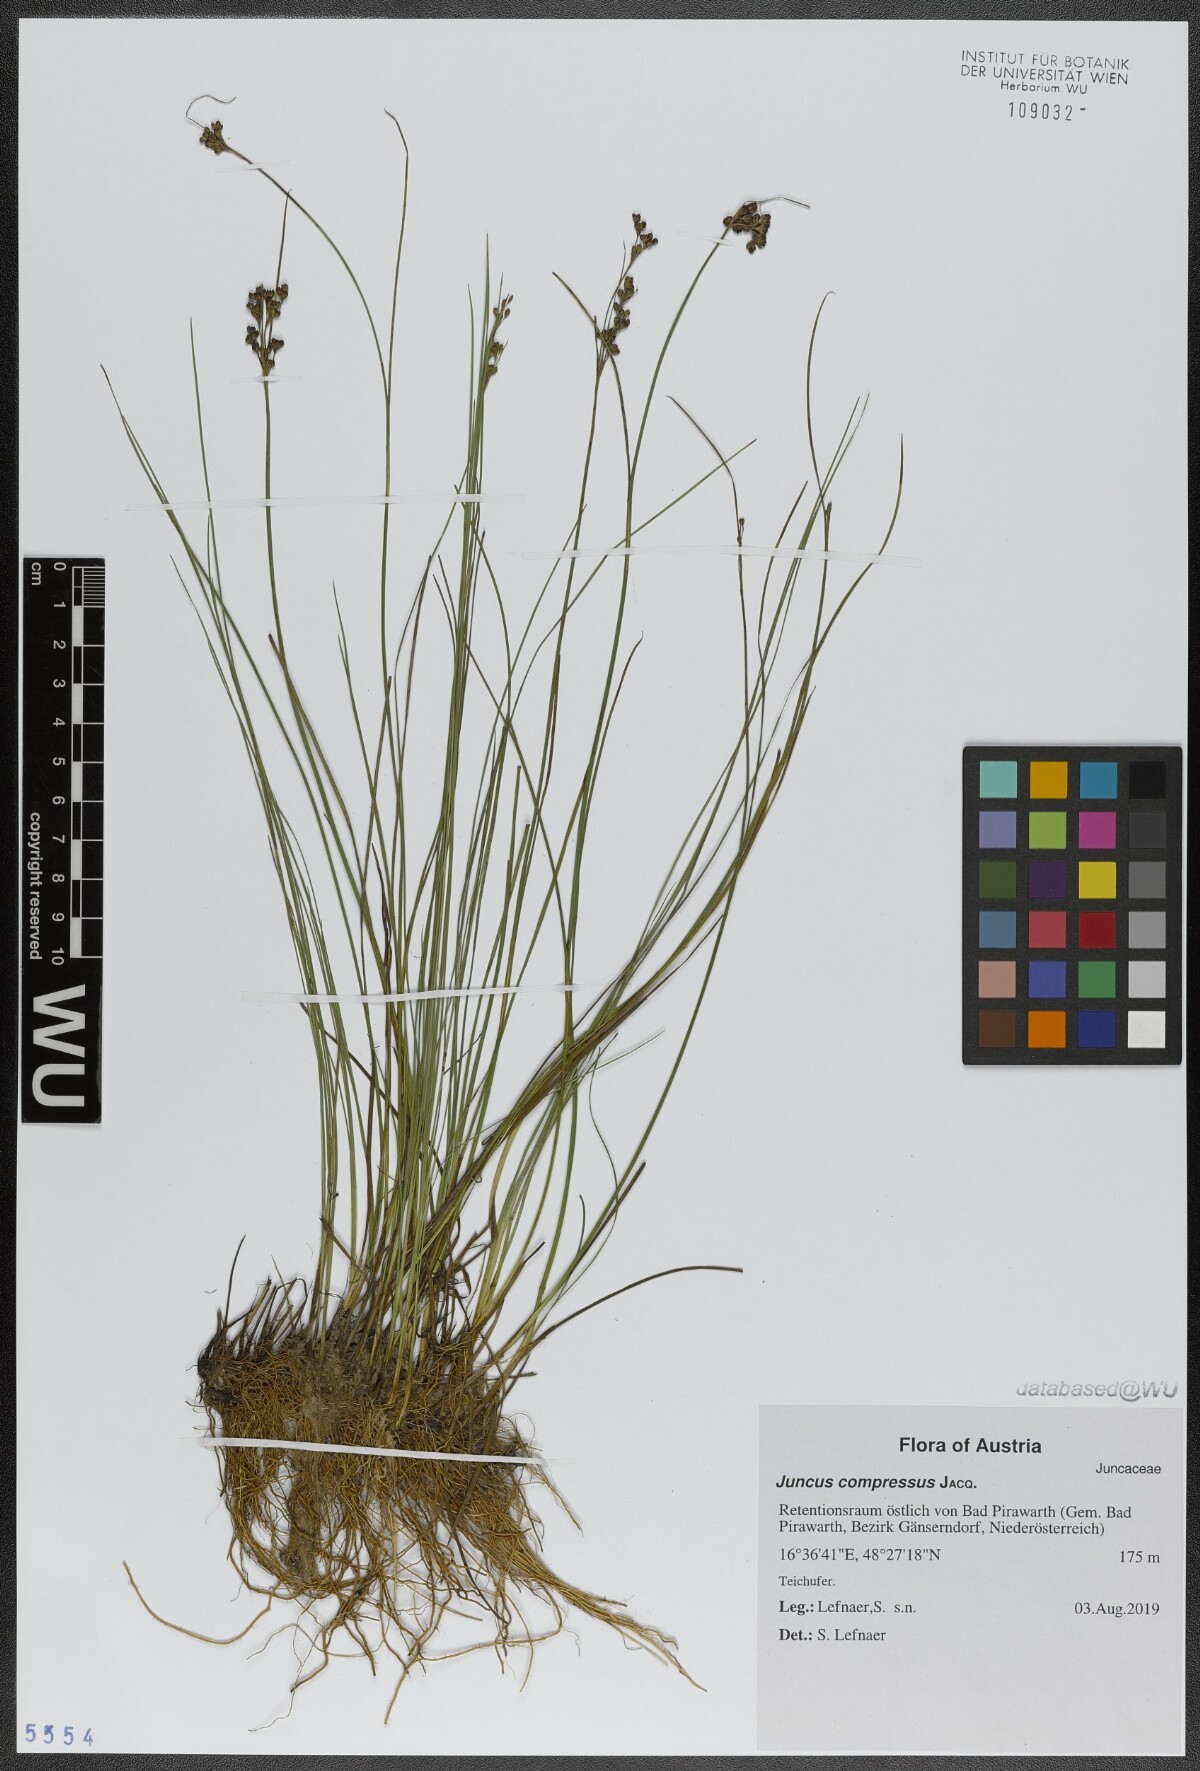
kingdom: Plantae
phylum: Tracheophyta
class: Liliopsida
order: Poales
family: Juncaceae
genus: Juncus
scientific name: Juncus compressus
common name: Round-fruited rush
